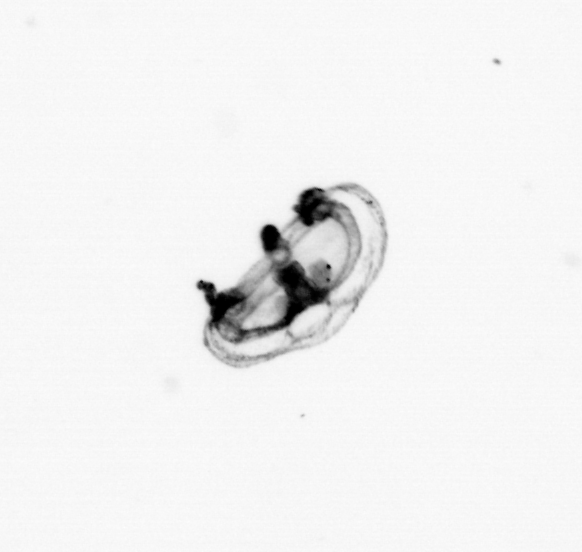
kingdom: Animalia
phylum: Cnidaria
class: Hydrozoa
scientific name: Hydrozoa
